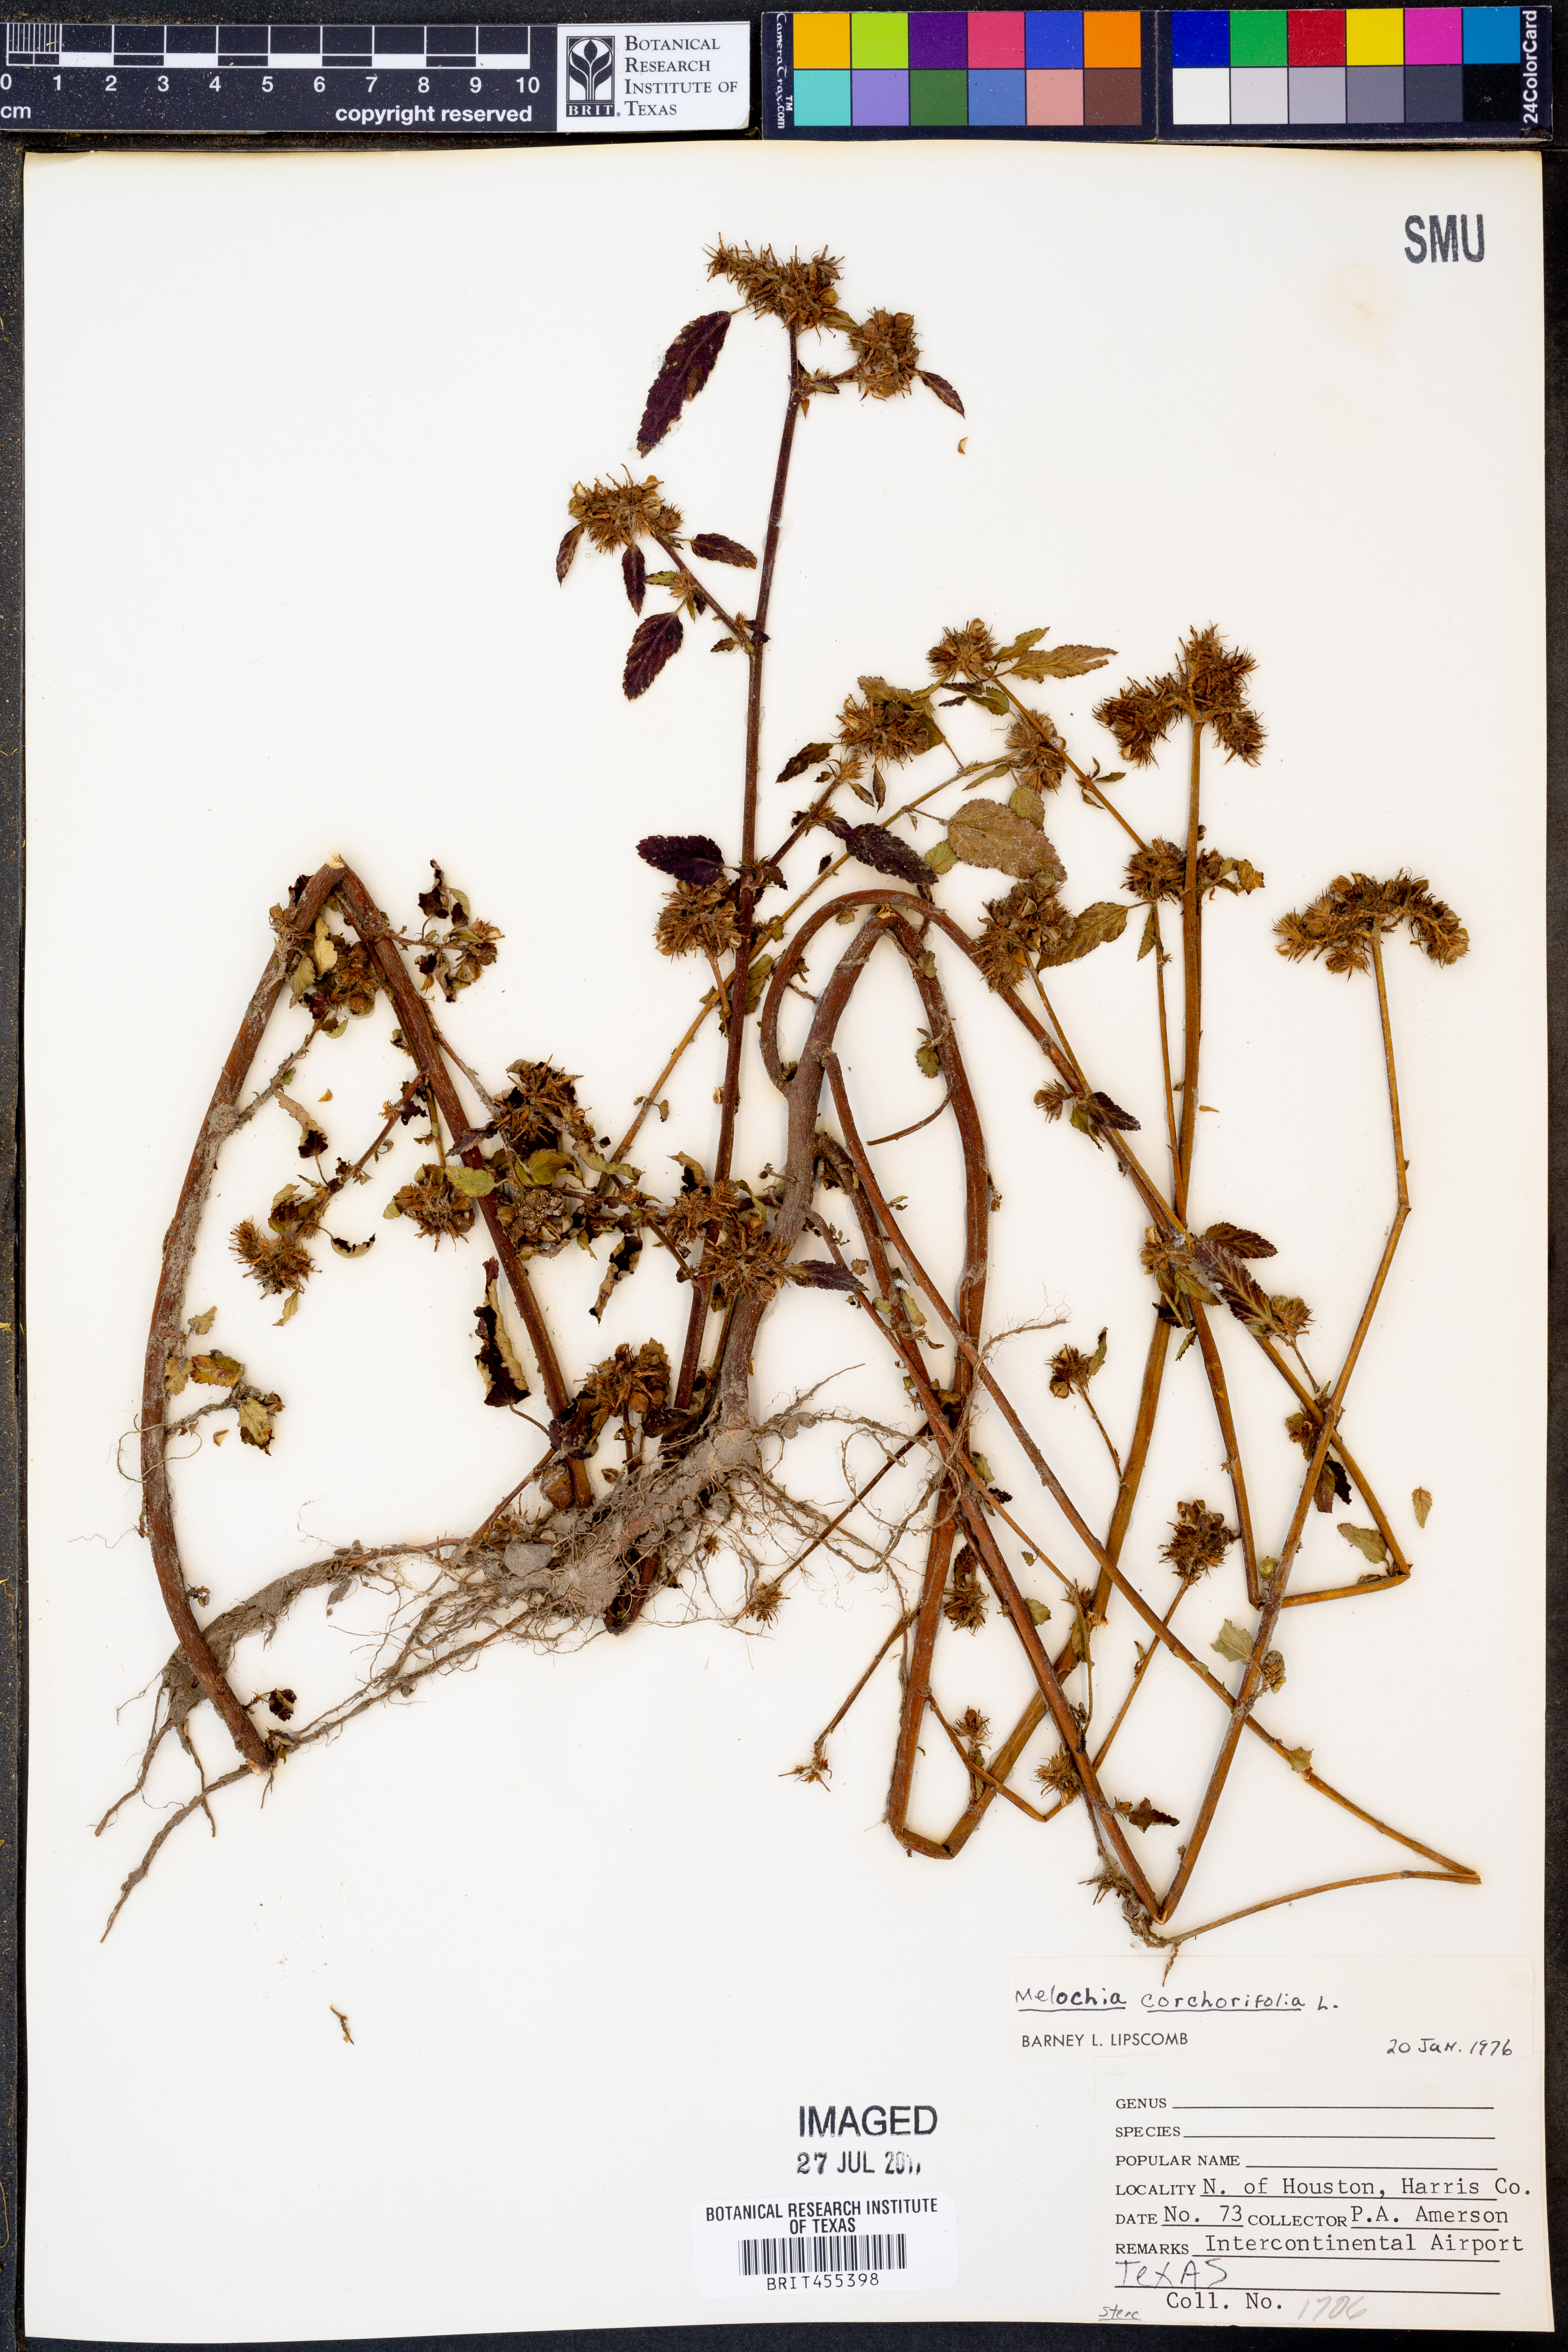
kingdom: Plantae
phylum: Tracheophyta
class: Magnoliopsida
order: Malvales
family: Malvaceae
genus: Melochia
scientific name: Melochia corchorifolia
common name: Chocolateweed
